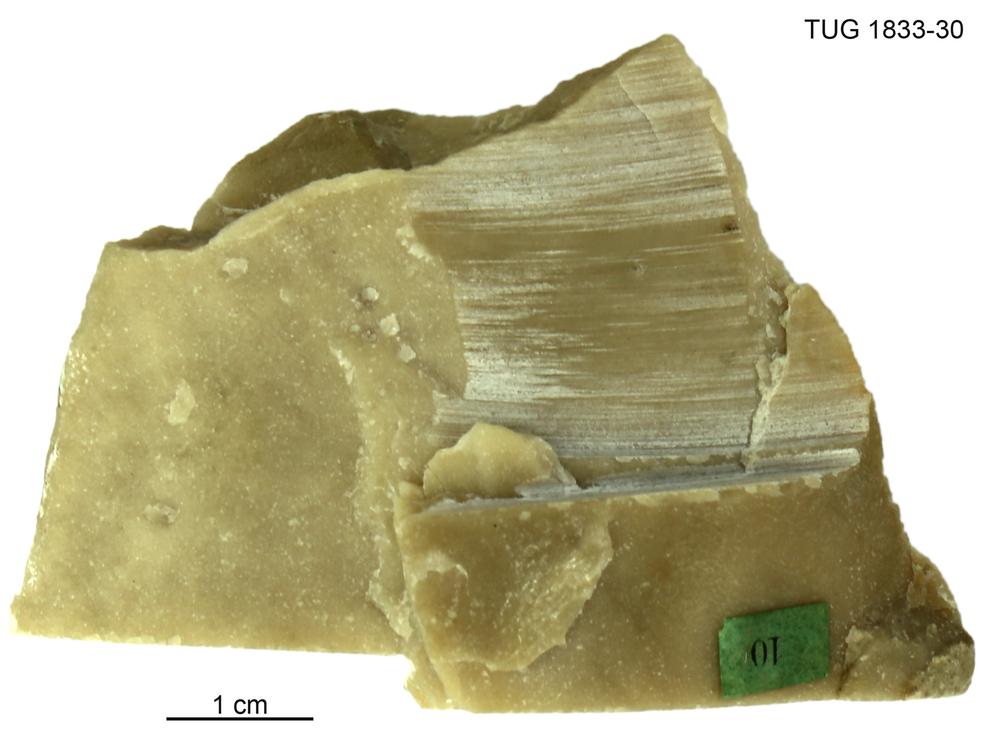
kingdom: Animalia
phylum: Porifera
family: Stromatoporidae
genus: Stromatopora
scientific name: Stromatopora
